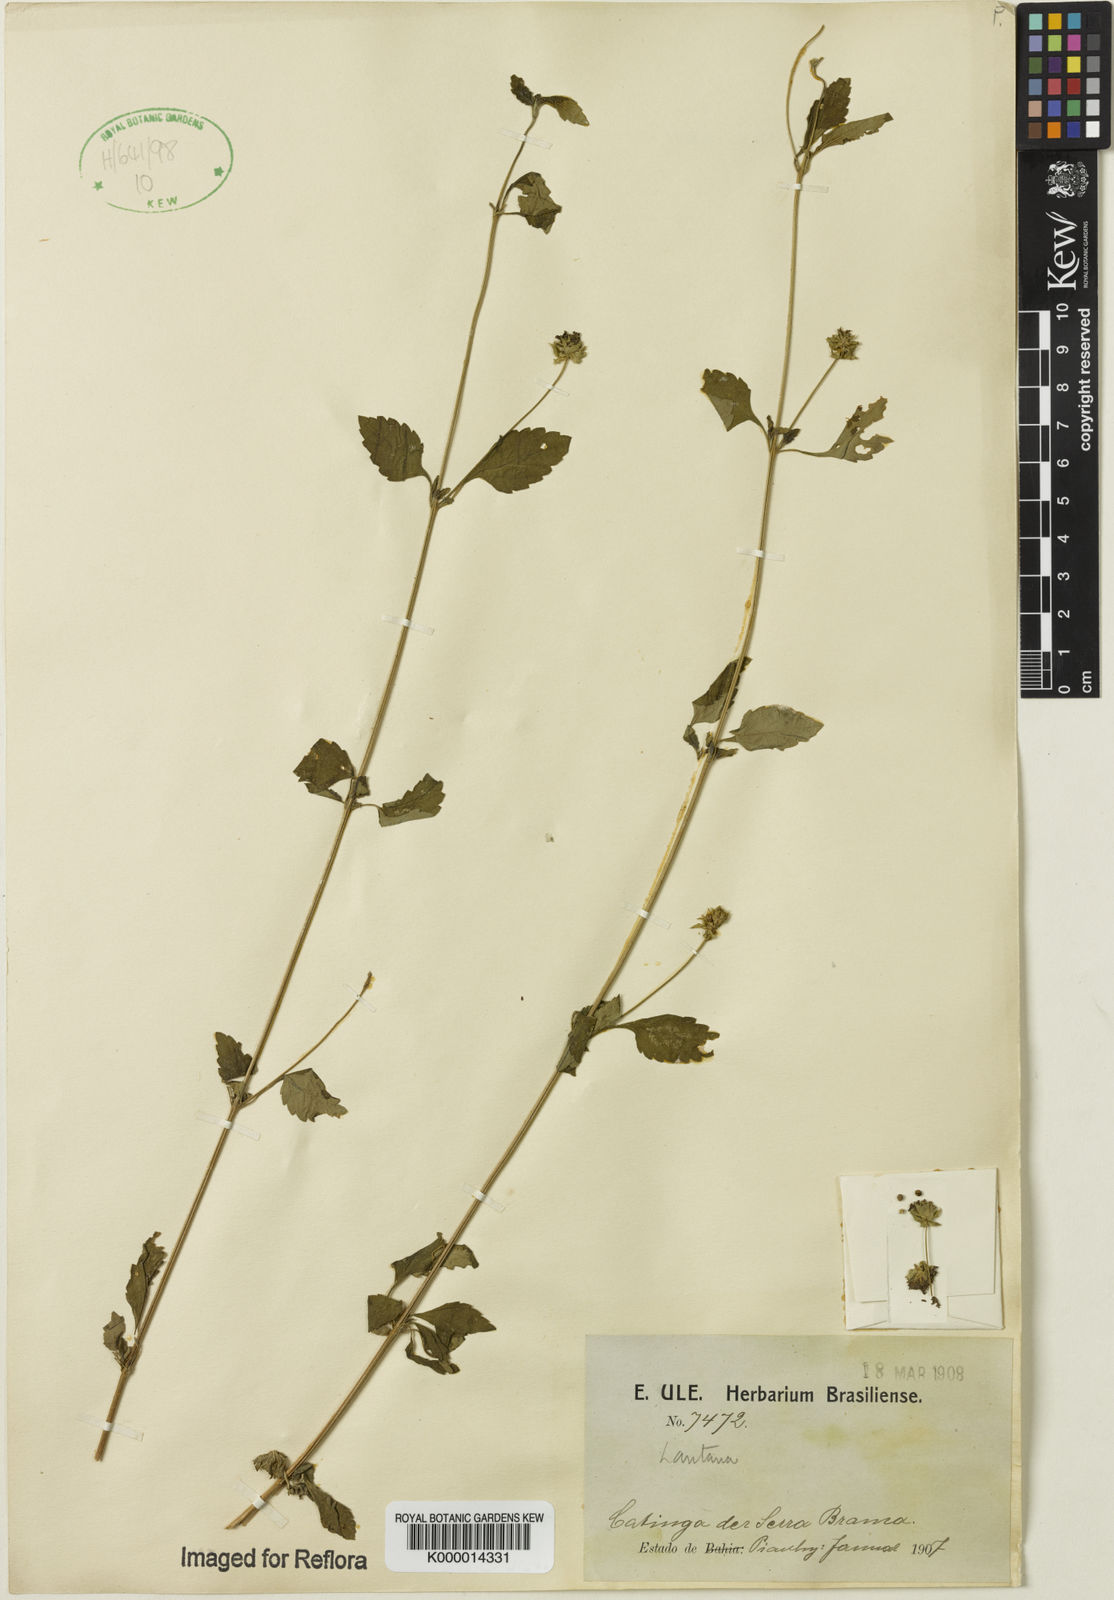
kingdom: Plantae
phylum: Tracheophyta
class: Magnoliopsida
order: Lamiales
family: Verbenaceae
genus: Lantana
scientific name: Lantana
